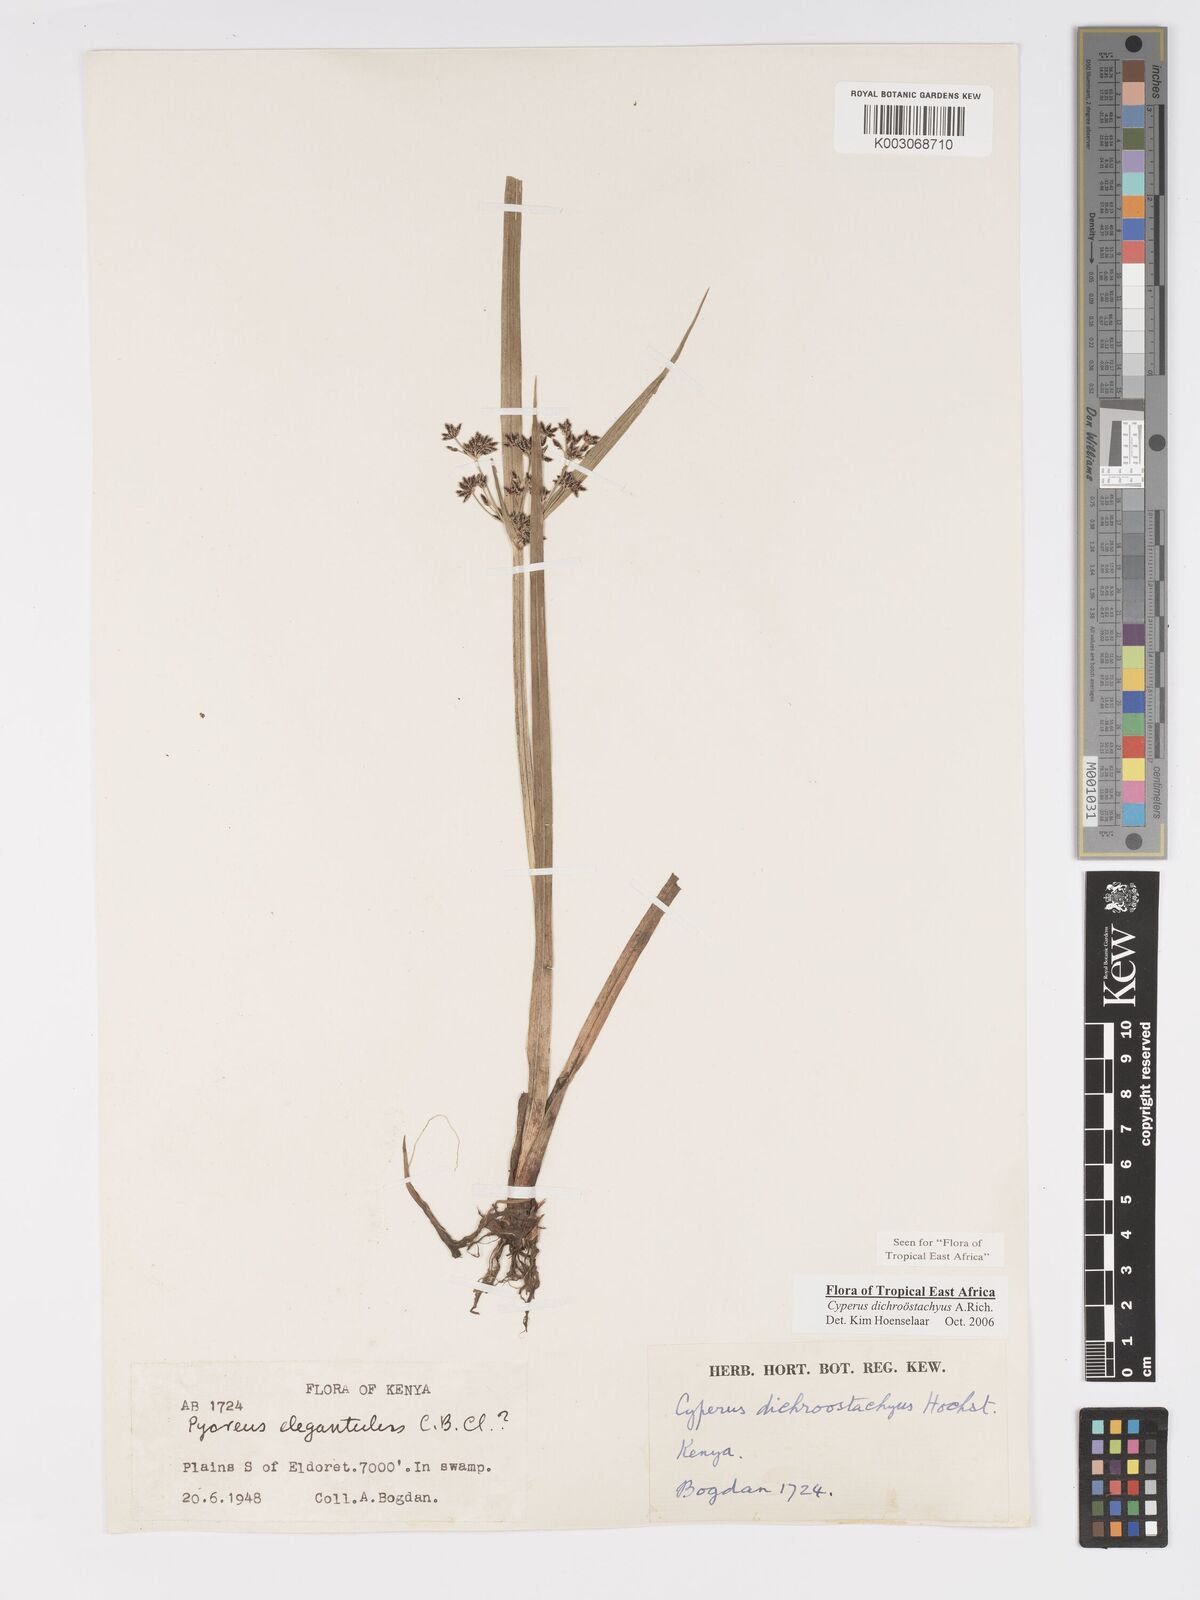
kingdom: Plantae
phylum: Tracheophyta
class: Liliopsida
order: Poales
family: Cyperaceae
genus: Cyperus
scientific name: Cyperus dichrostachyus
